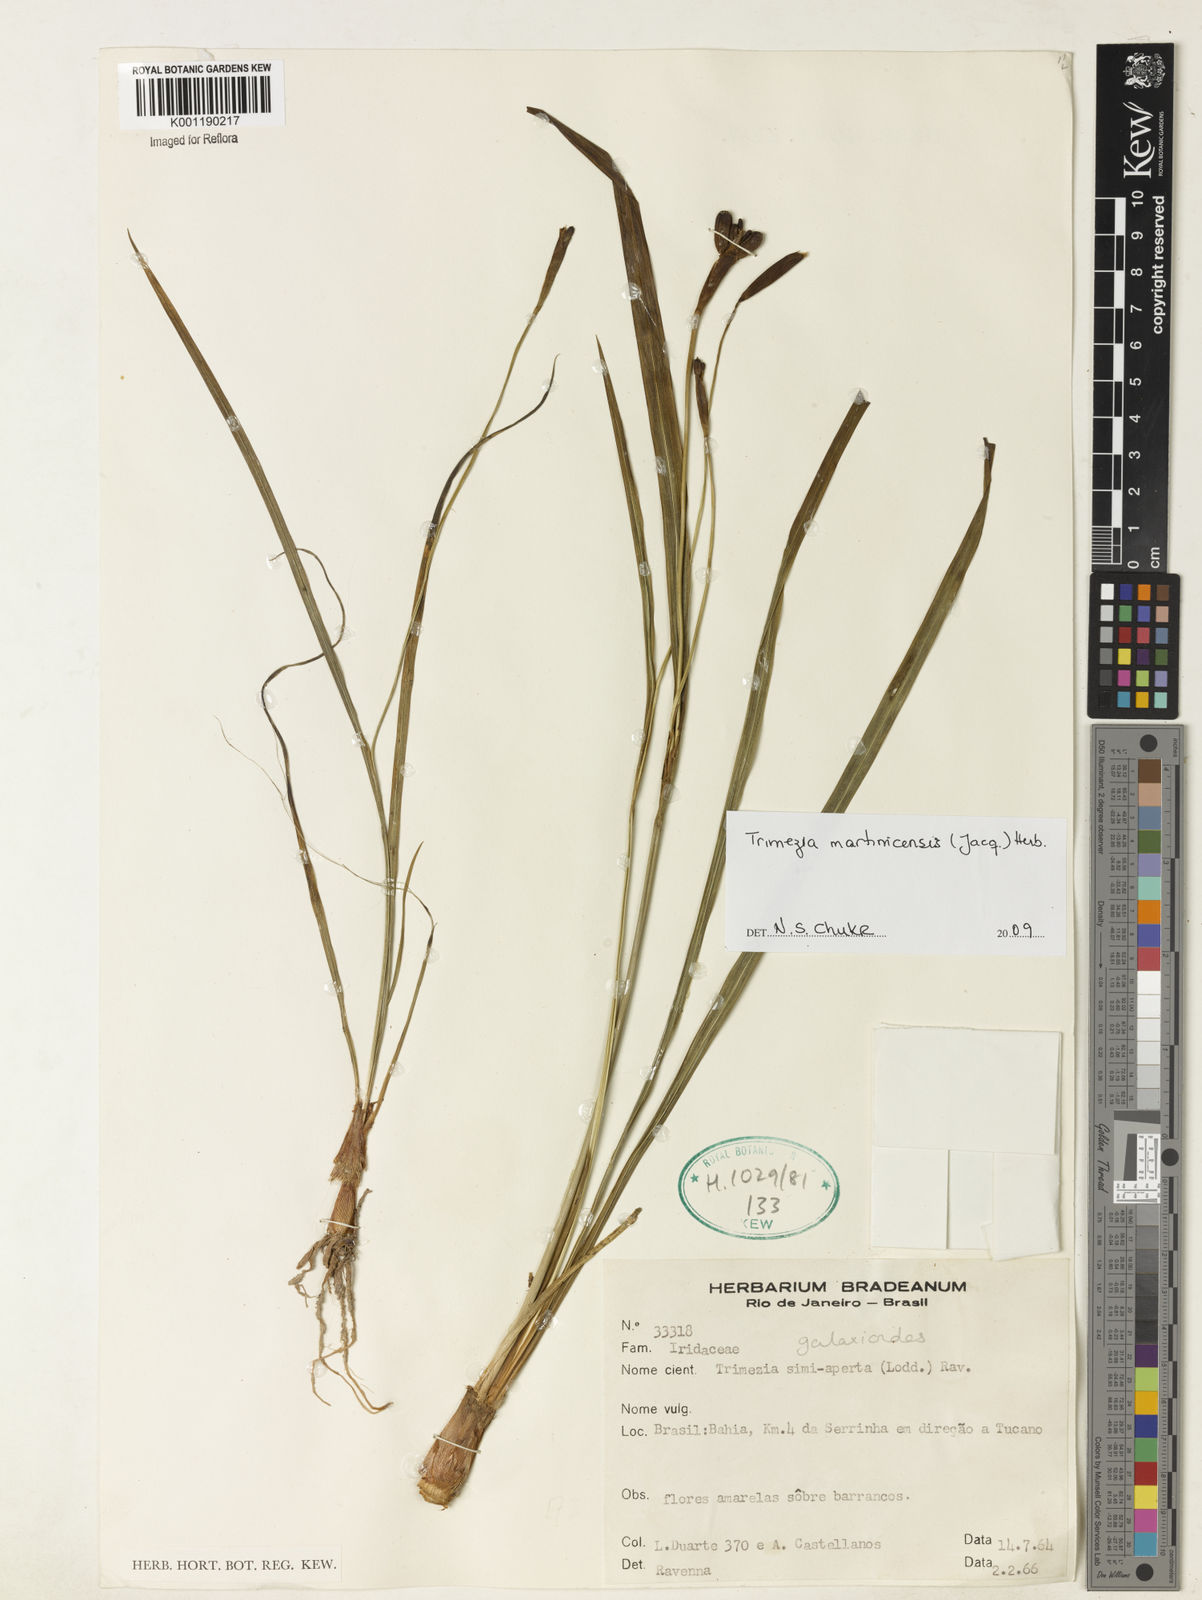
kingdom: Plantae
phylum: Tracheophyta
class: Liliopsida
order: Asparagales
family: Iridaceae
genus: Trimezia
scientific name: Trimezia martinicensis
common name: Martinique trimezia
